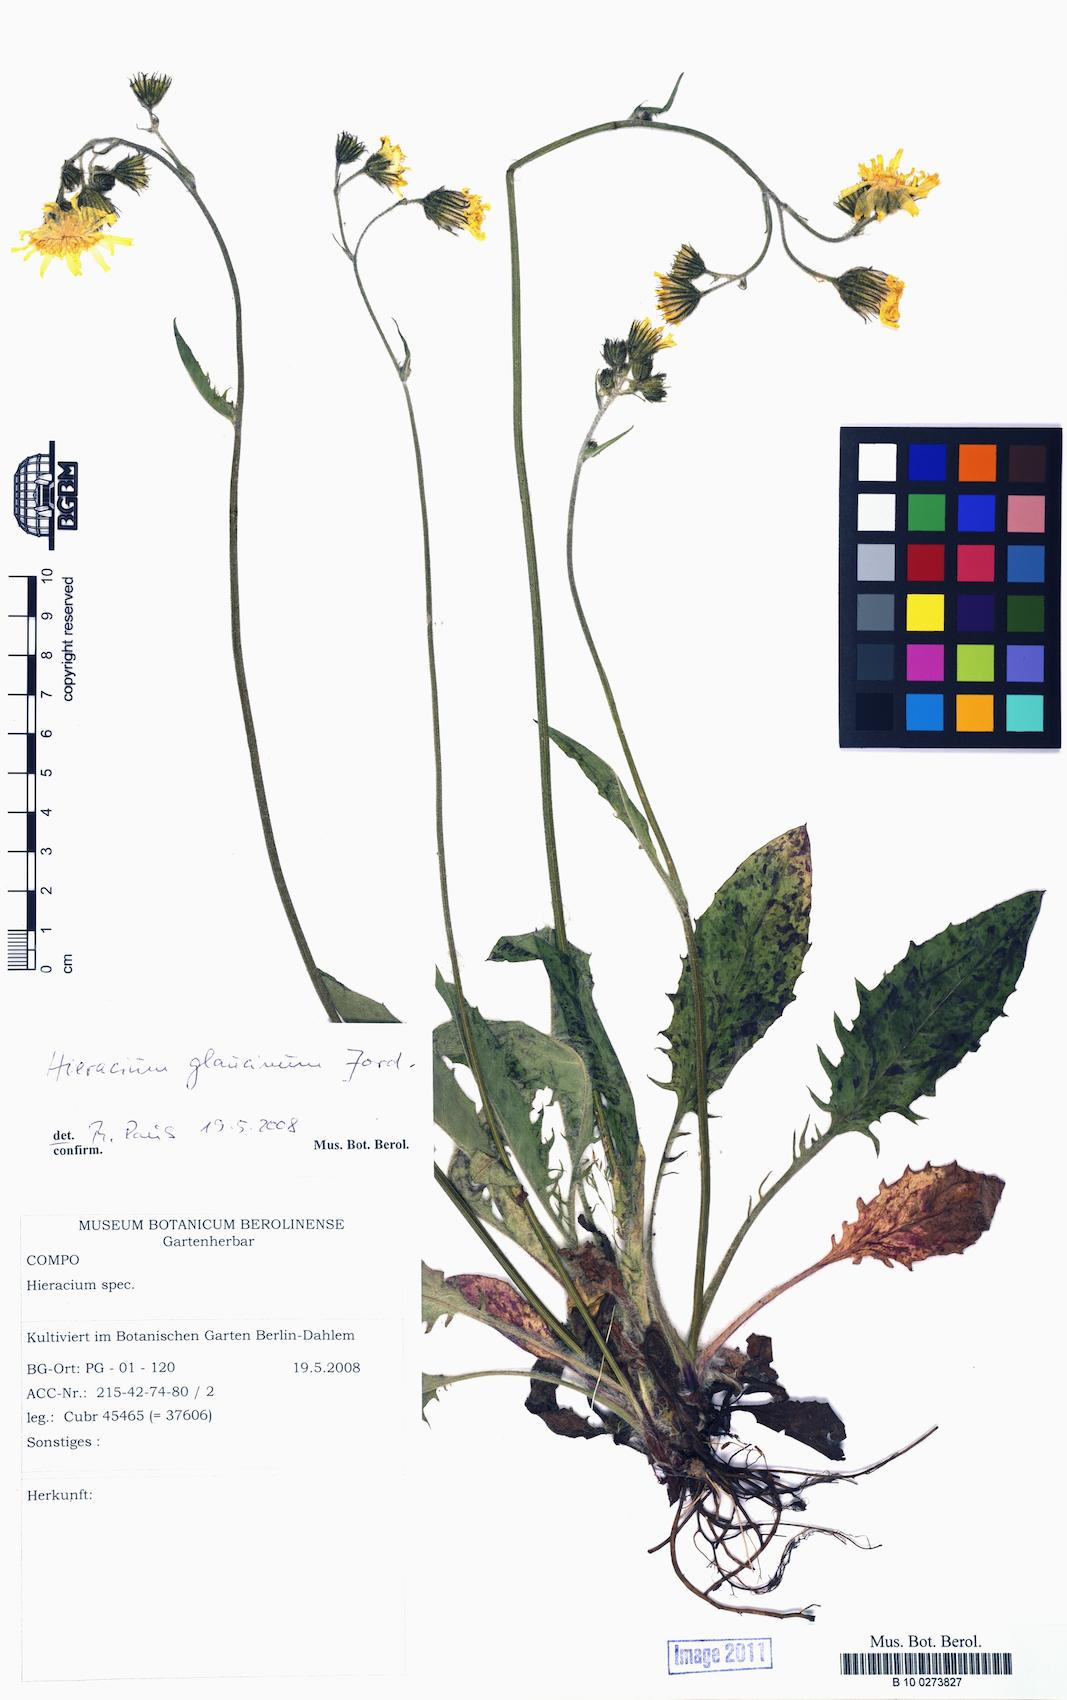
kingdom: Plantae
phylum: Tracheophyta
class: Magnoliopsida
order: Asterales
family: Asteraceae
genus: Hieracium
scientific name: Hieracium glaucinum
